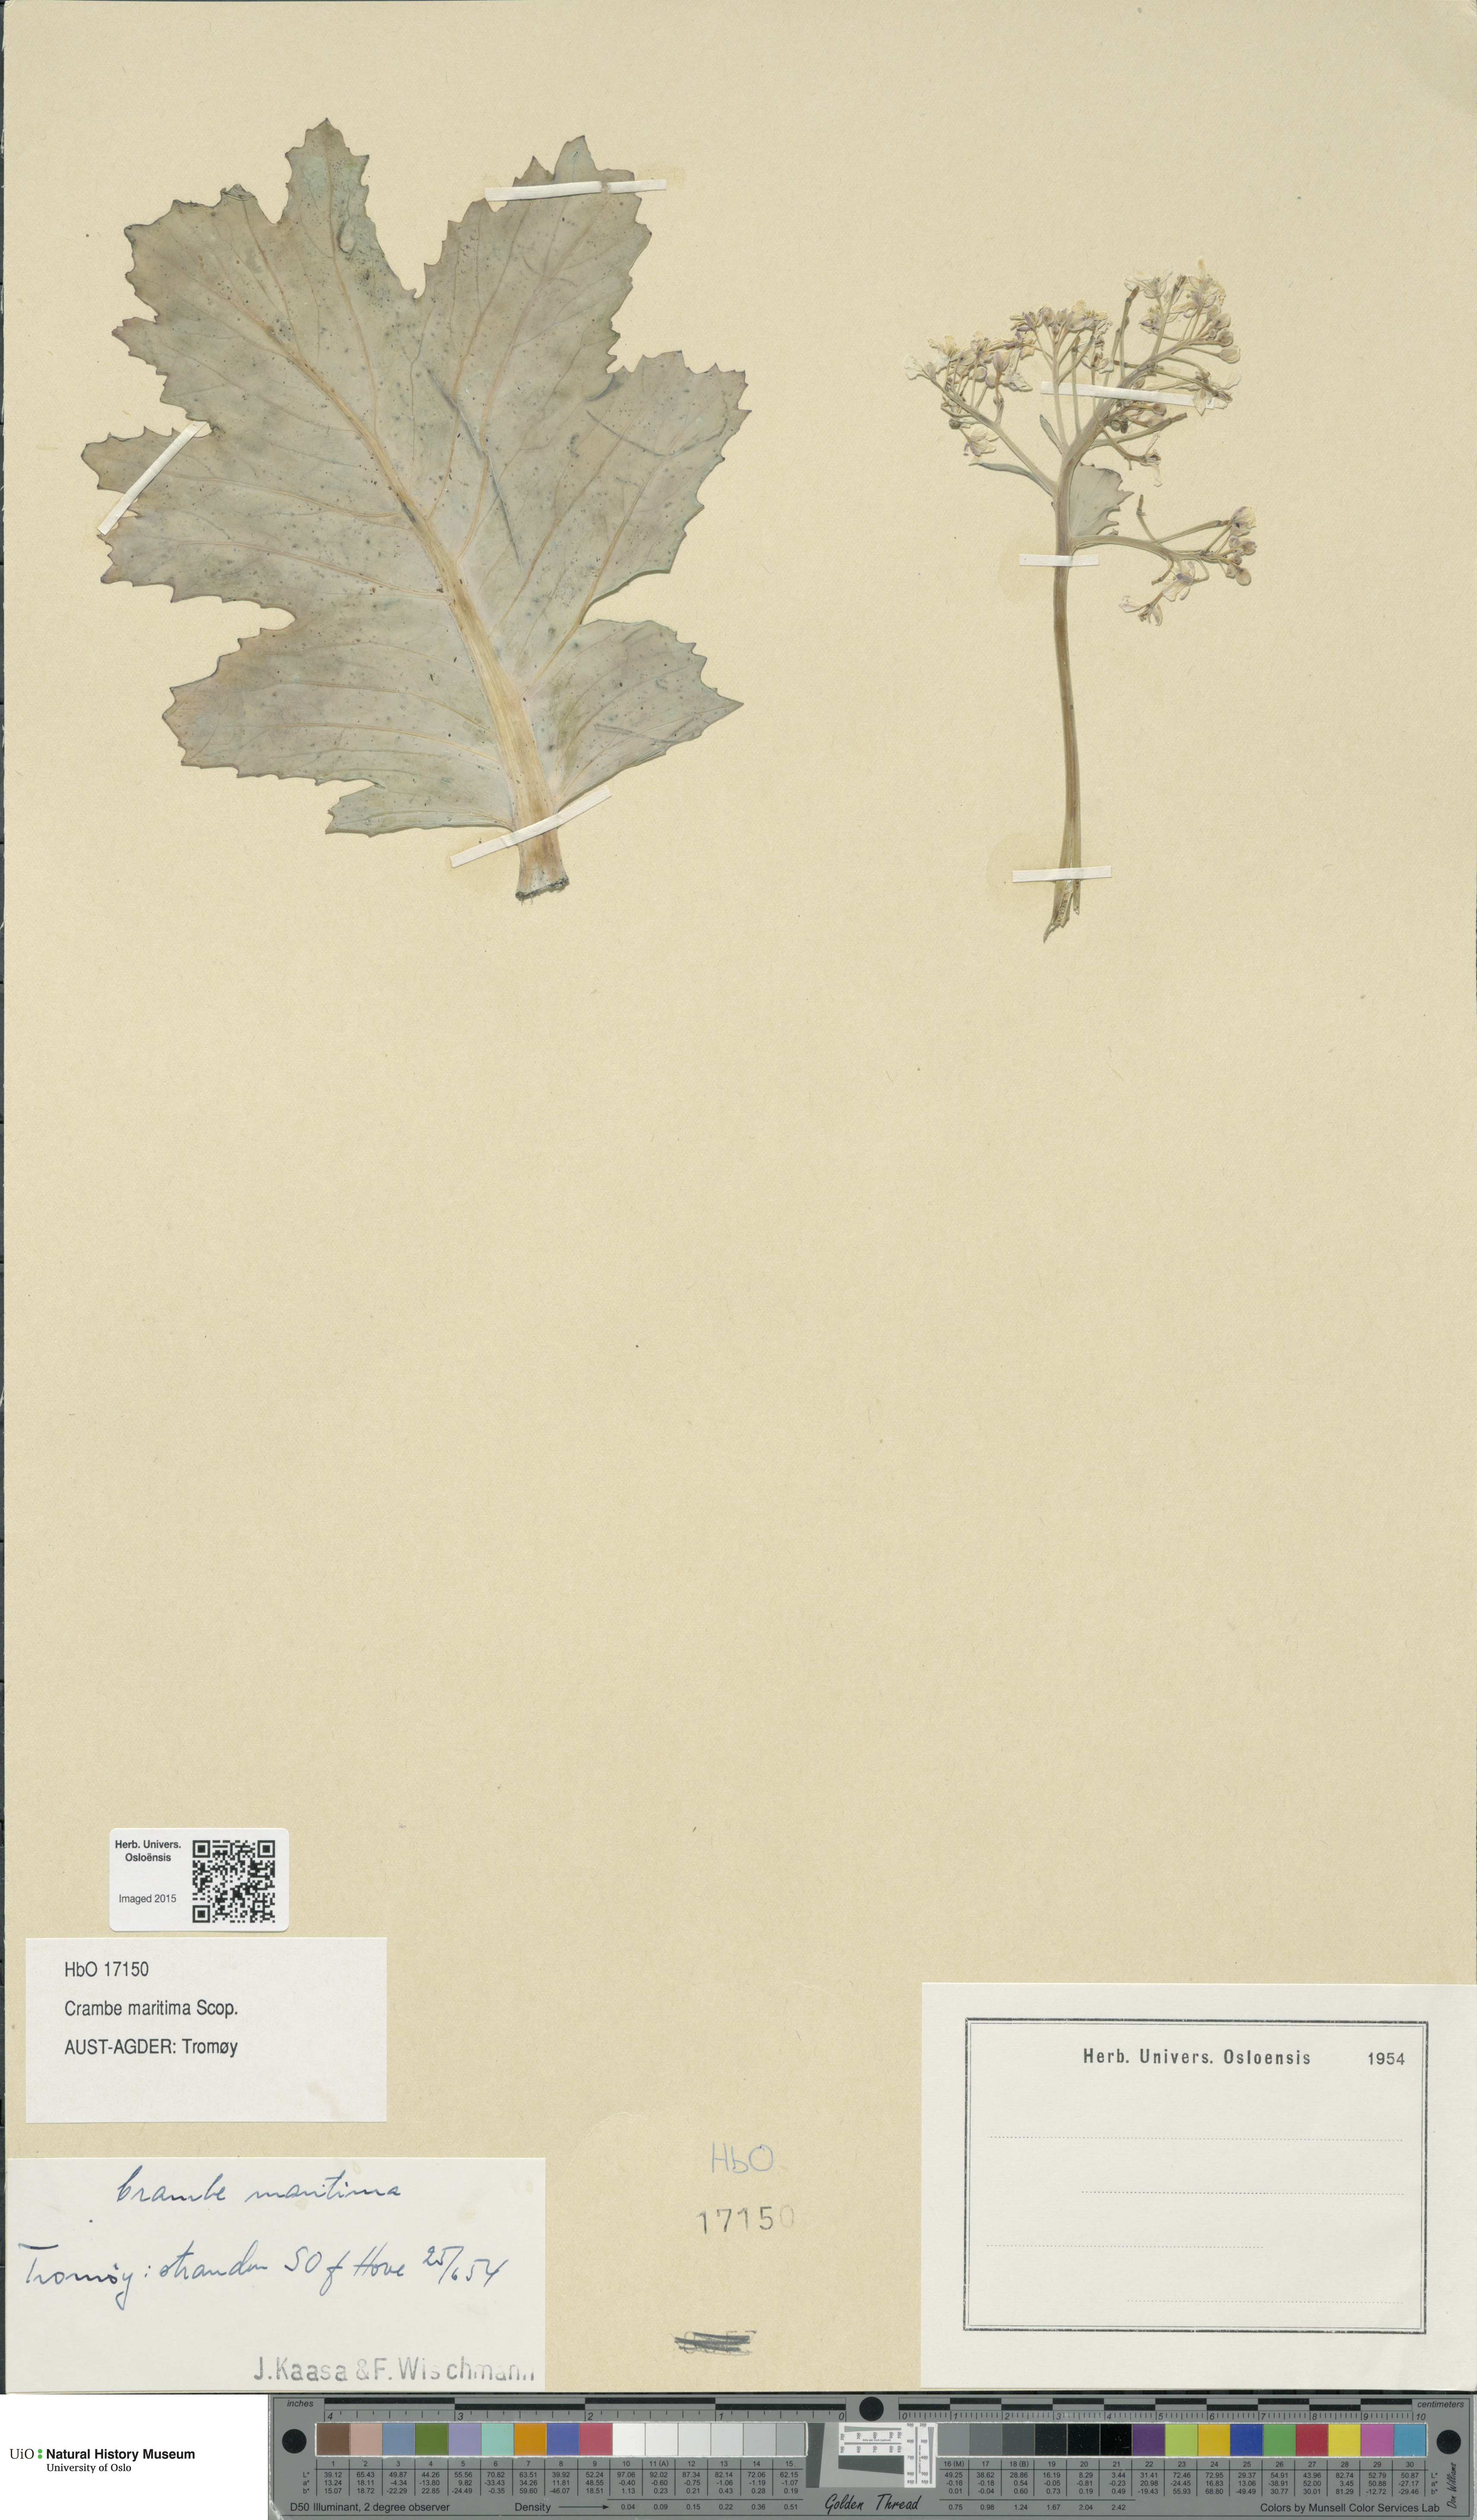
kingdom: Plantae
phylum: Tracheophyta
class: Magnoliopsida
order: Brassicales
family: Brassicaceae
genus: Crambe
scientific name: Crambe maritima
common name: Sea-kale
